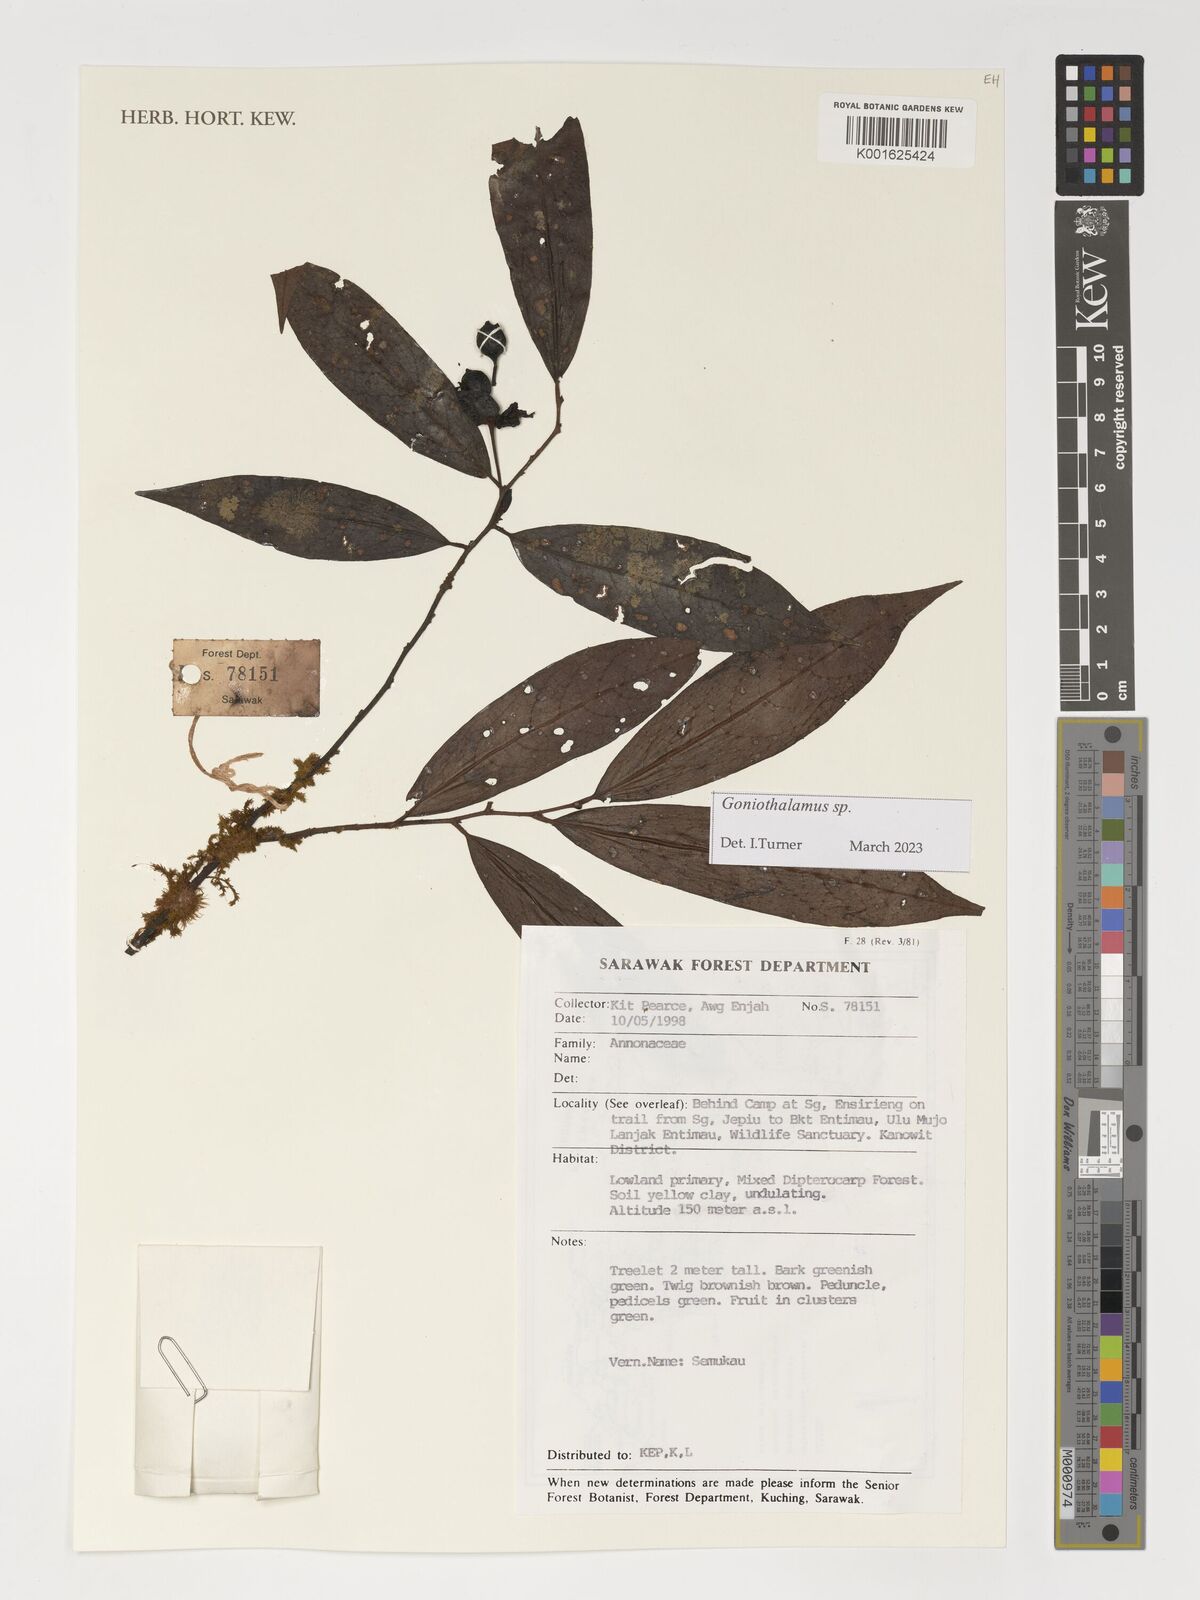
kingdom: Plantae
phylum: Tracheophyta
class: Magnoliopsida
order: Magnoliales
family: Annonaceae
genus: Goniothalamus
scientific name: Goniothalamus
